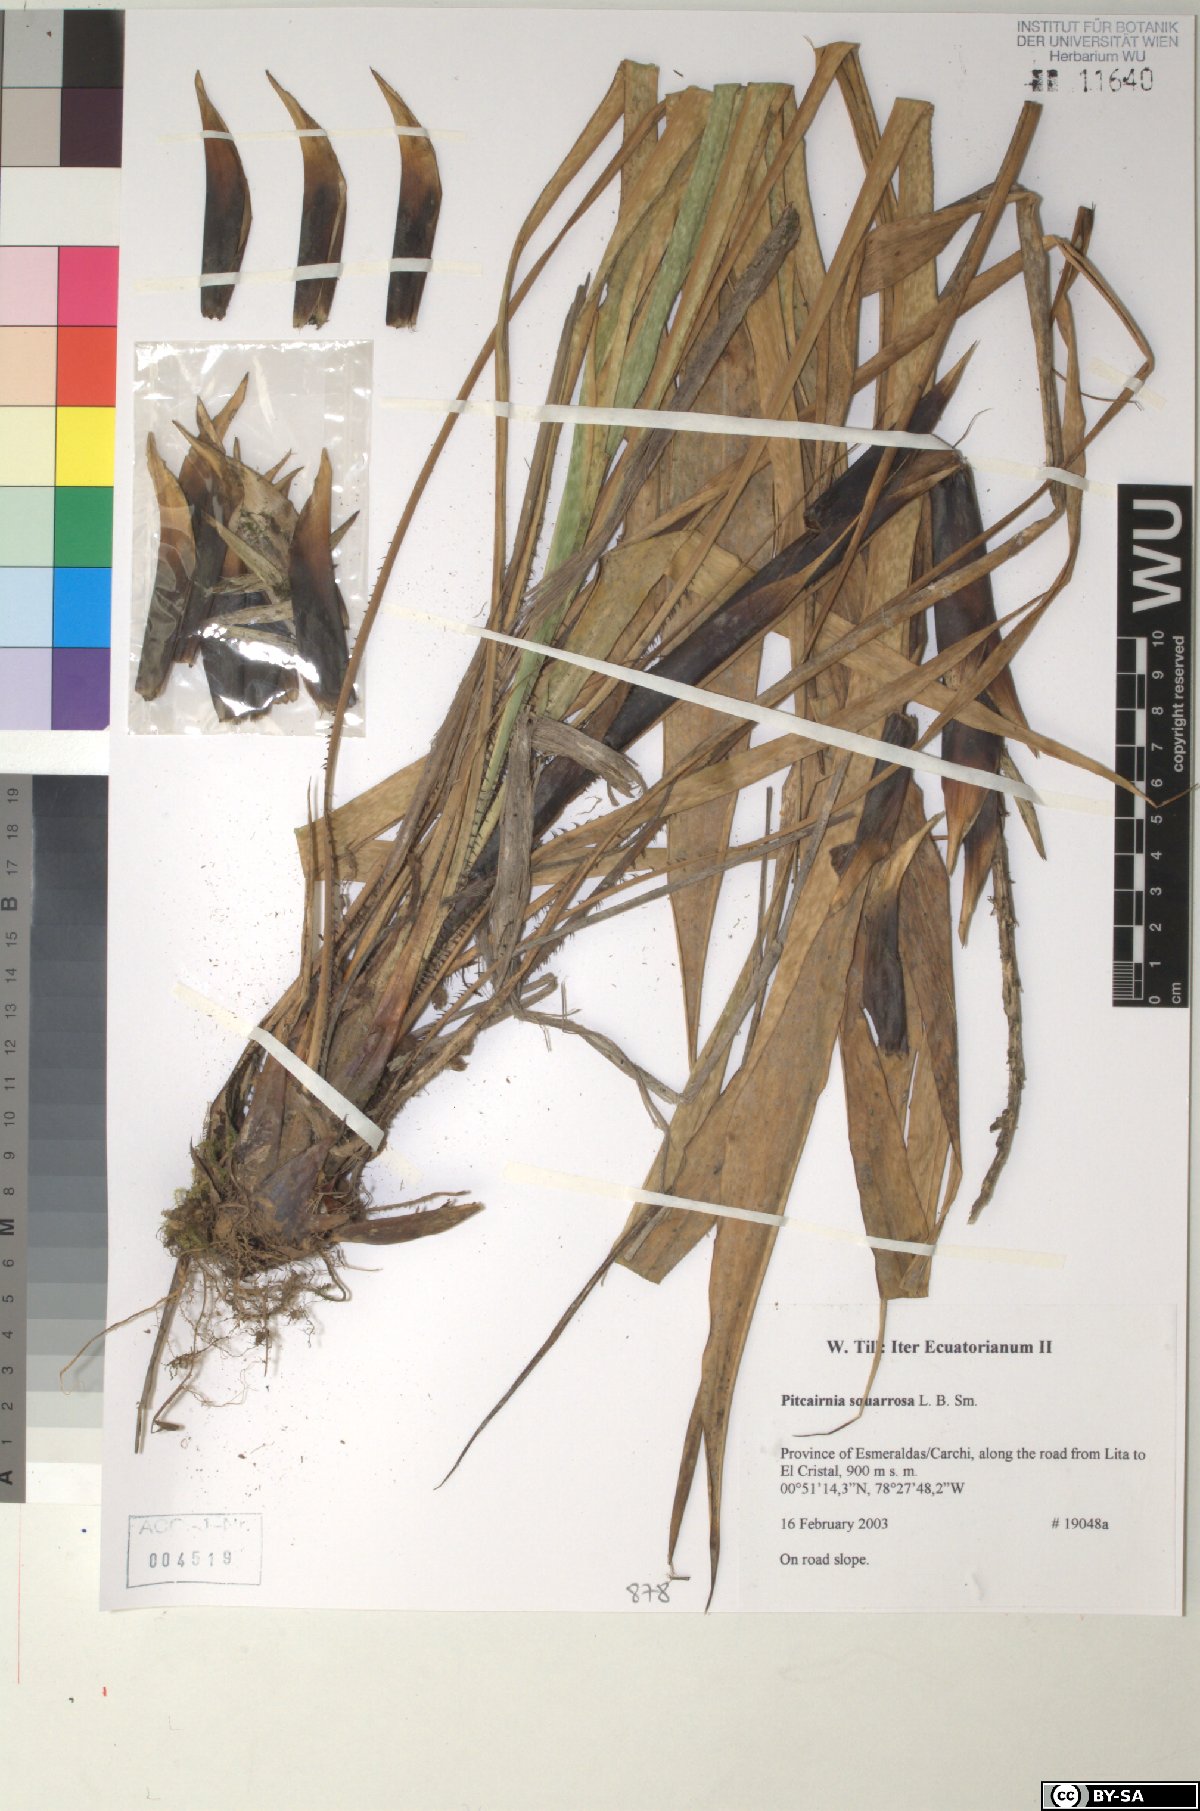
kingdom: Plantae
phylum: Tracheophyta
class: Liliopsida
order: Poales
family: Bromeliaceae
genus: Pitcairnia
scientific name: Pitcairnia squarrosa
